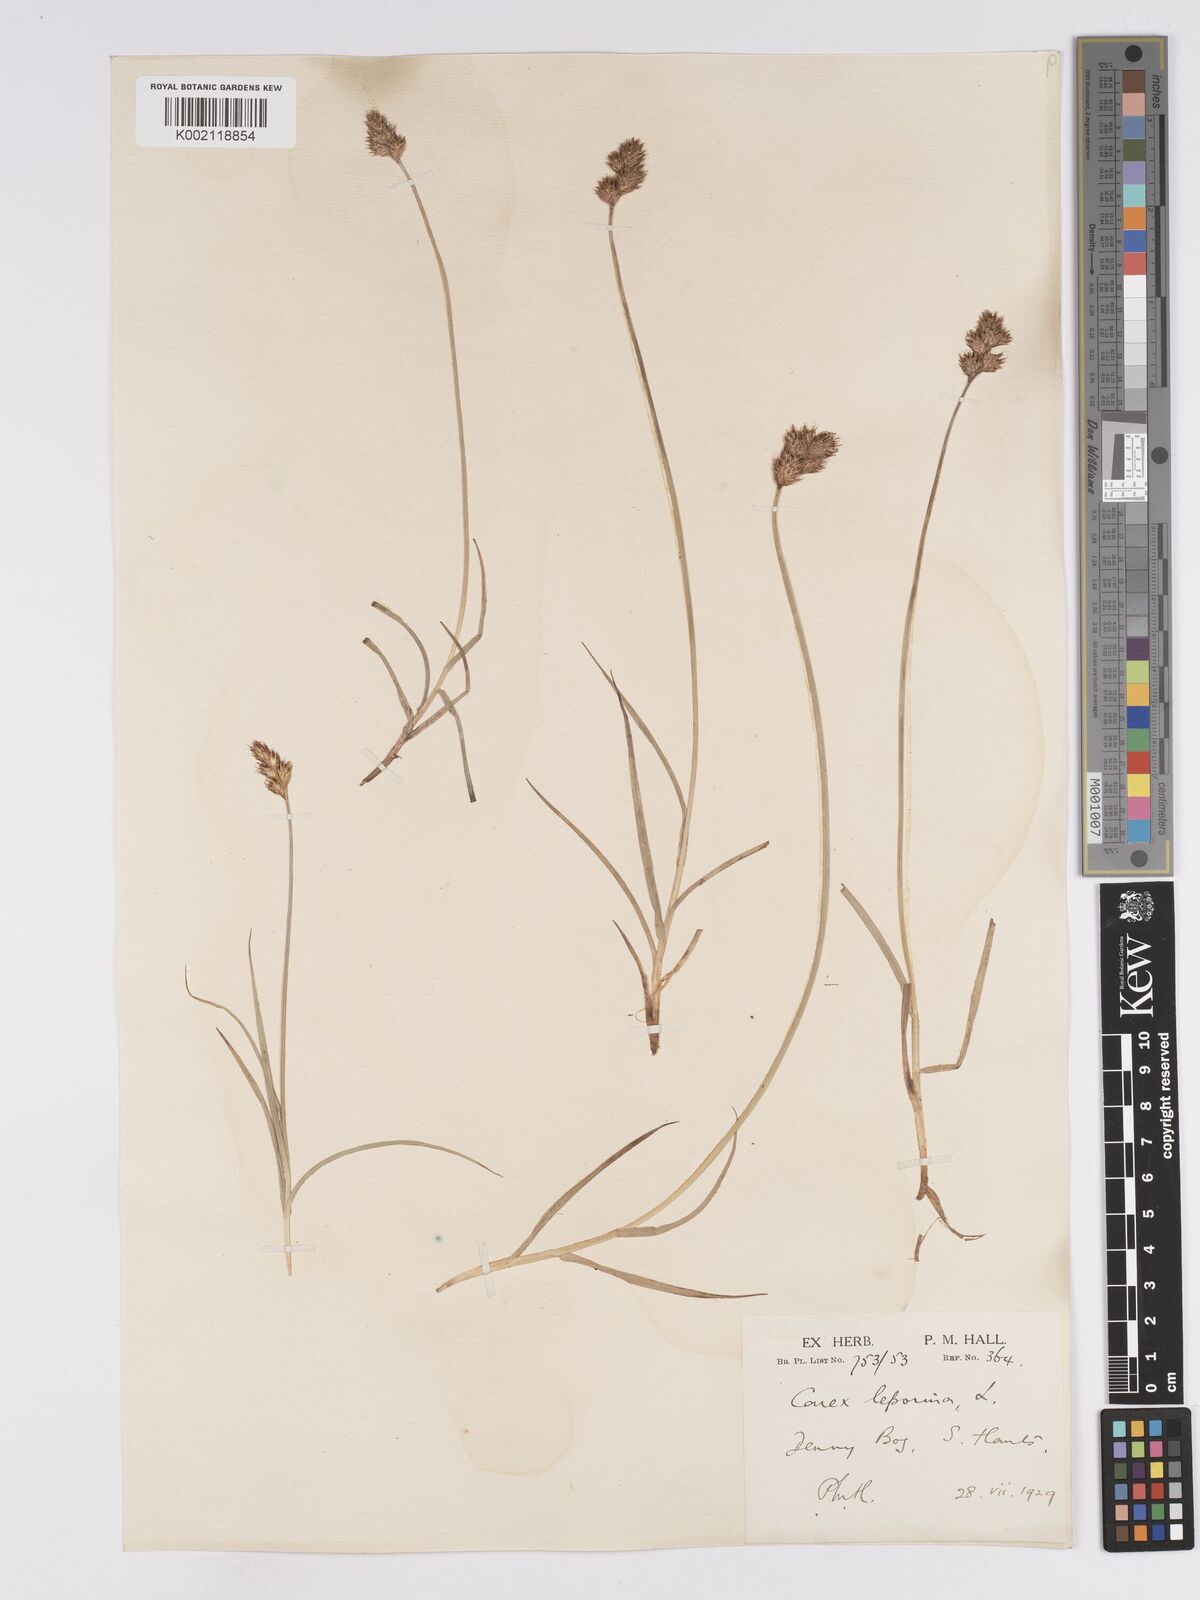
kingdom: Plantae
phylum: Tracheophyta
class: Liliopsida
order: Poales
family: Cyperaceae
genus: Carex
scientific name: Carex leporina
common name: Oval sedge
